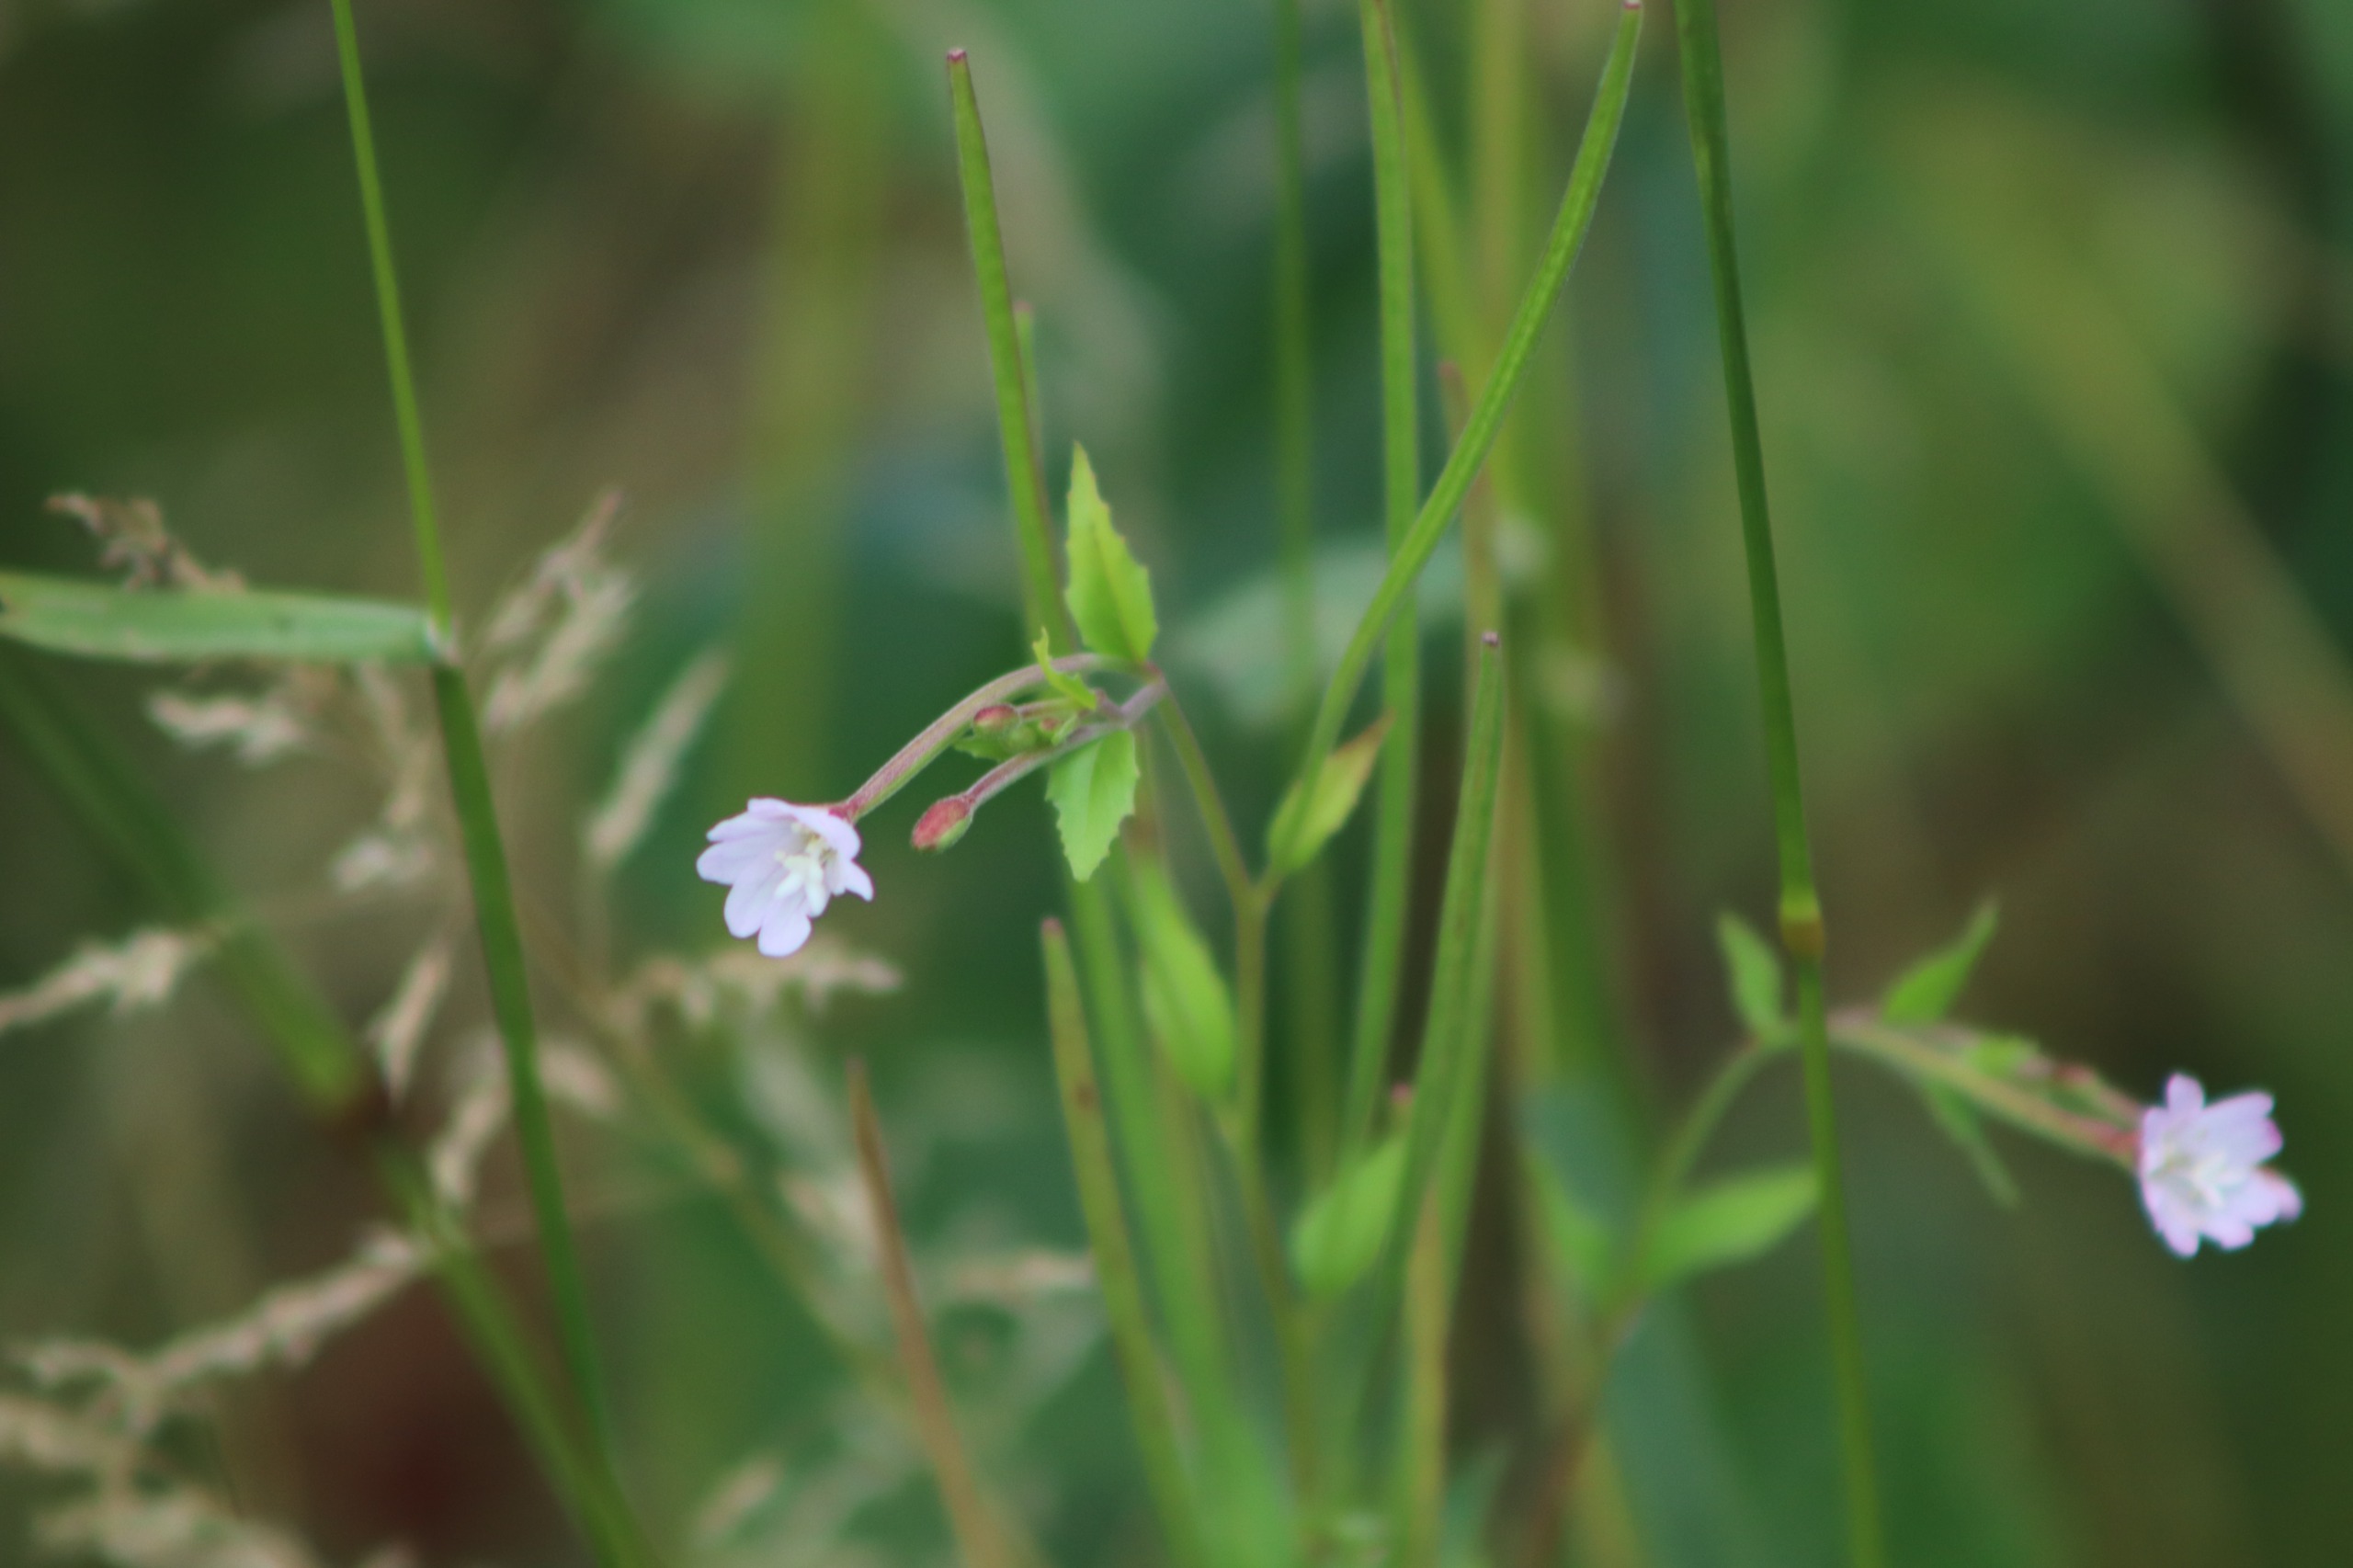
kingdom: Plantae
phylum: Tracheophyta
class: Magnoliopsida
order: Myrtales
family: Onagraceae
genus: Epilobium
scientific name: Epilobium montanum
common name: Glat dueurt
